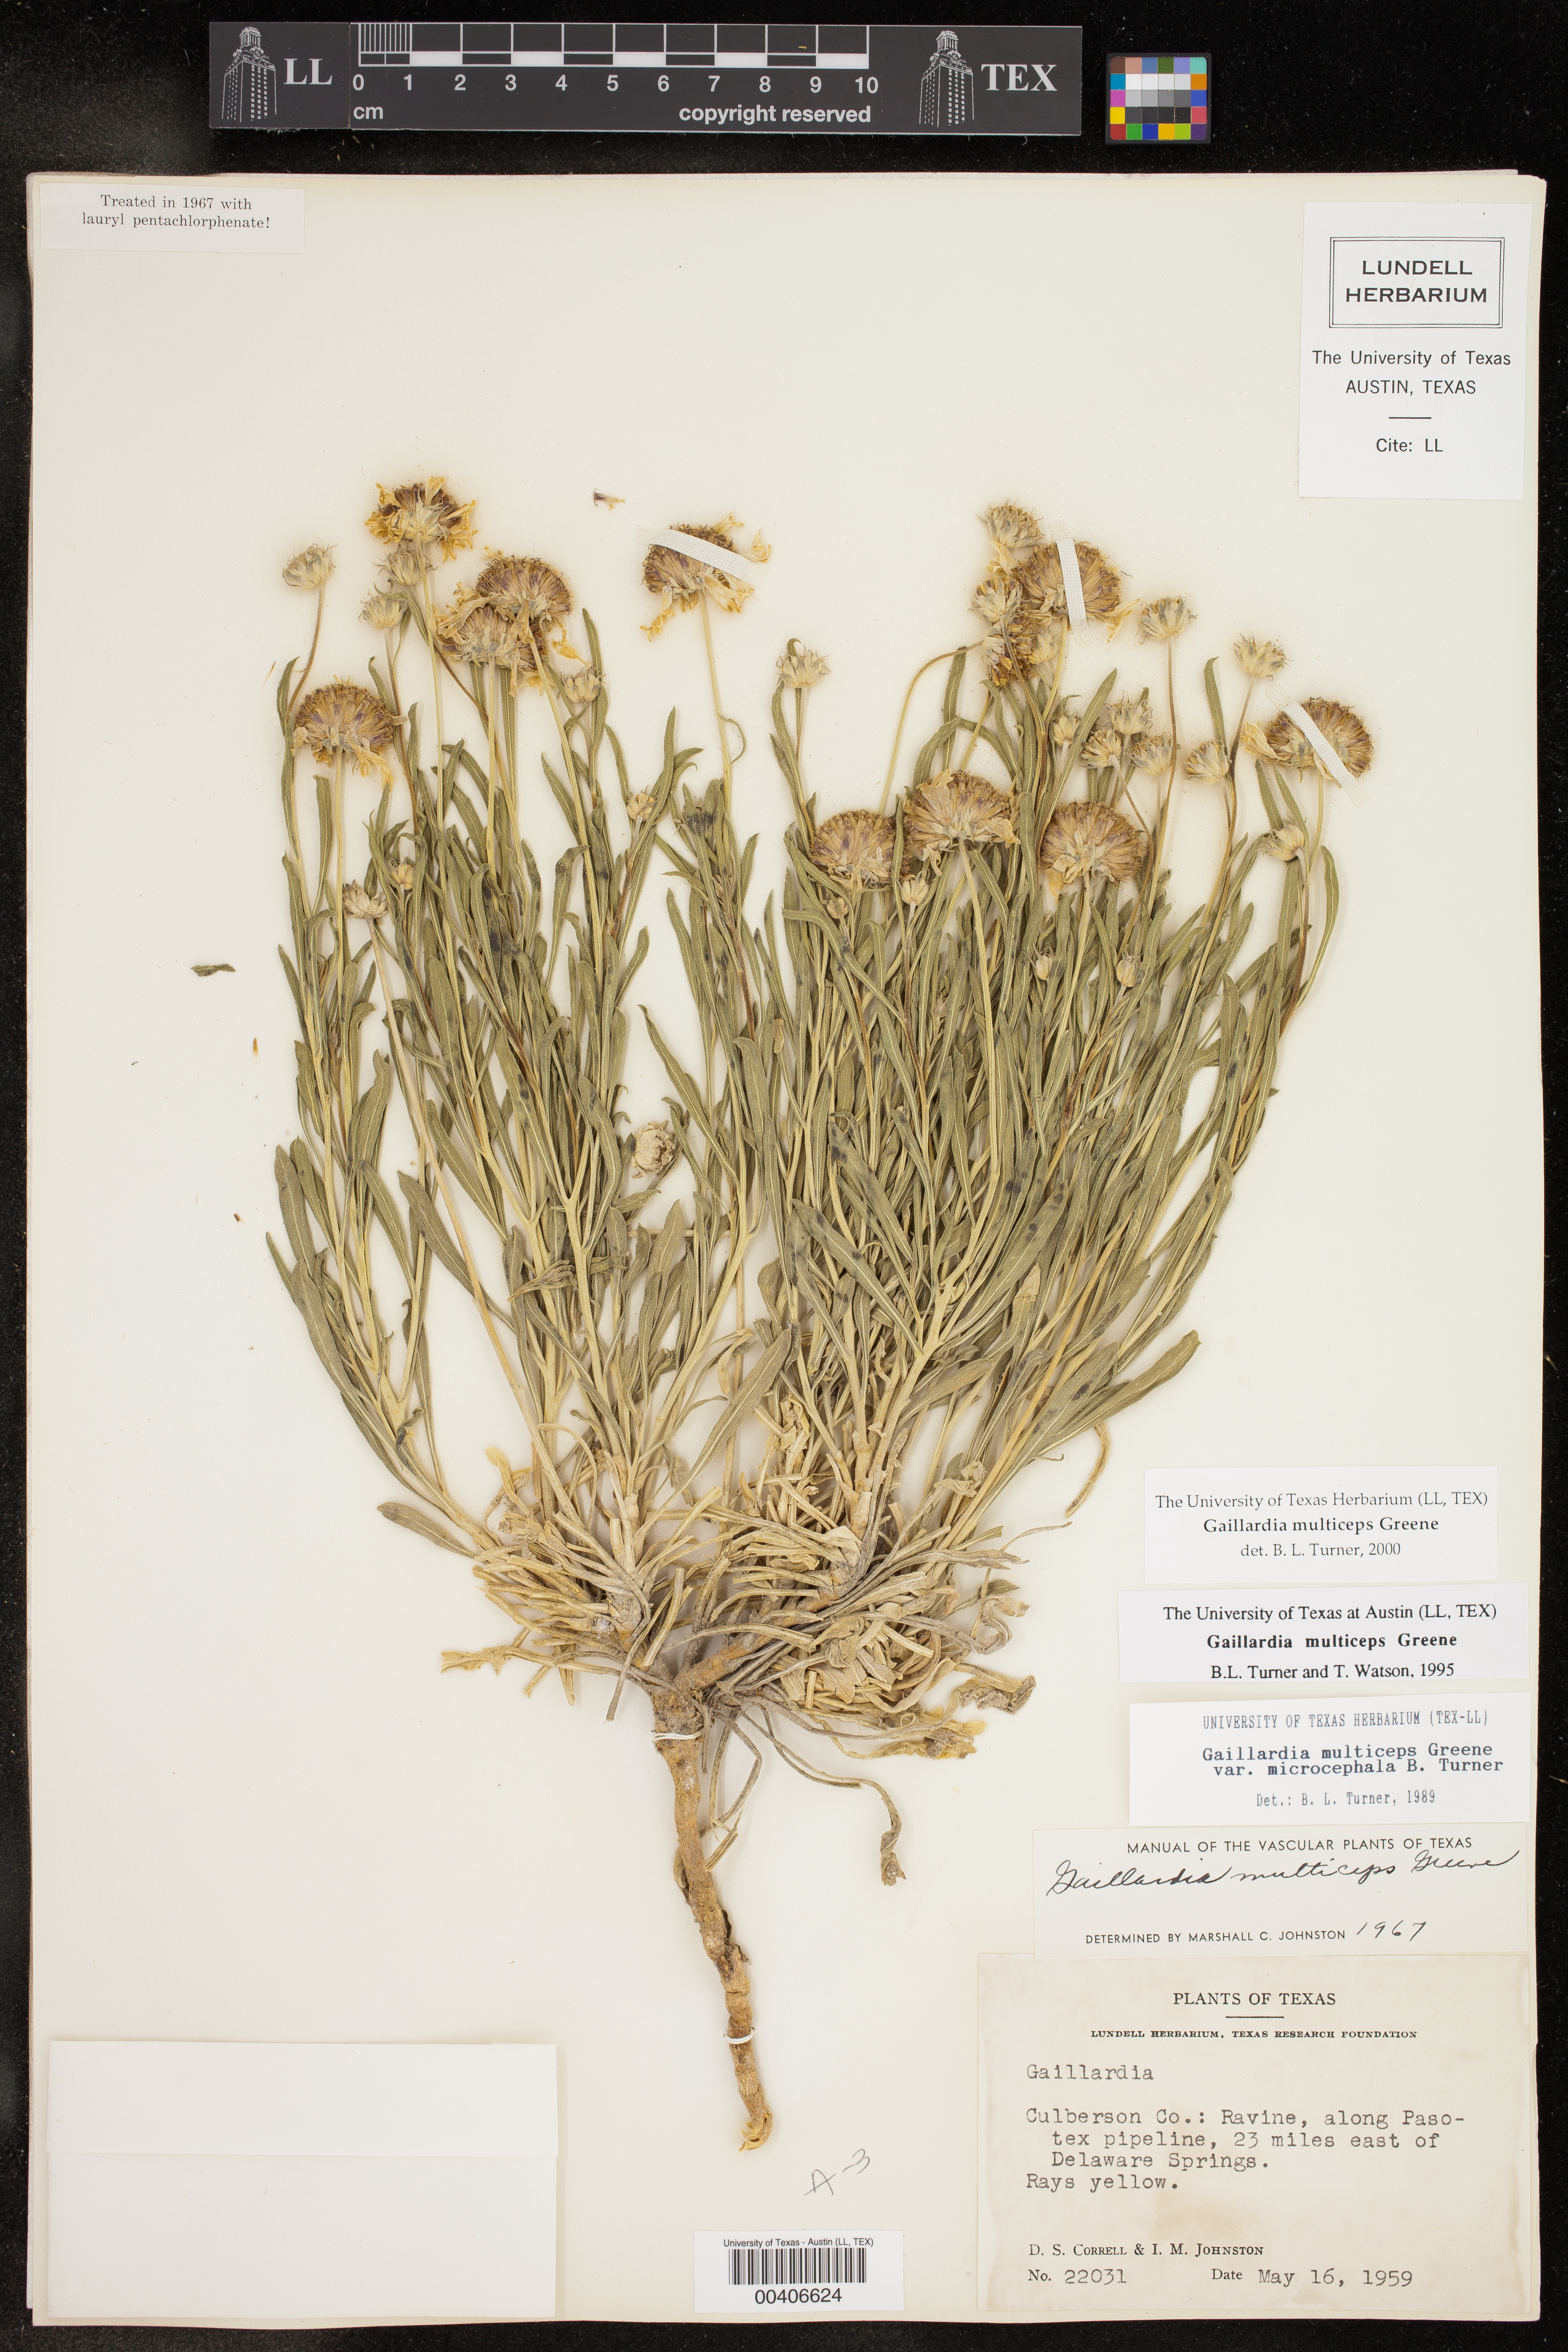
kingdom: Plantae
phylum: Tracheophyta
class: Magnoliopsida
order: Asterales
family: Asteraceae
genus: Gaillardia
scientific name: Gaillardia multiceps
